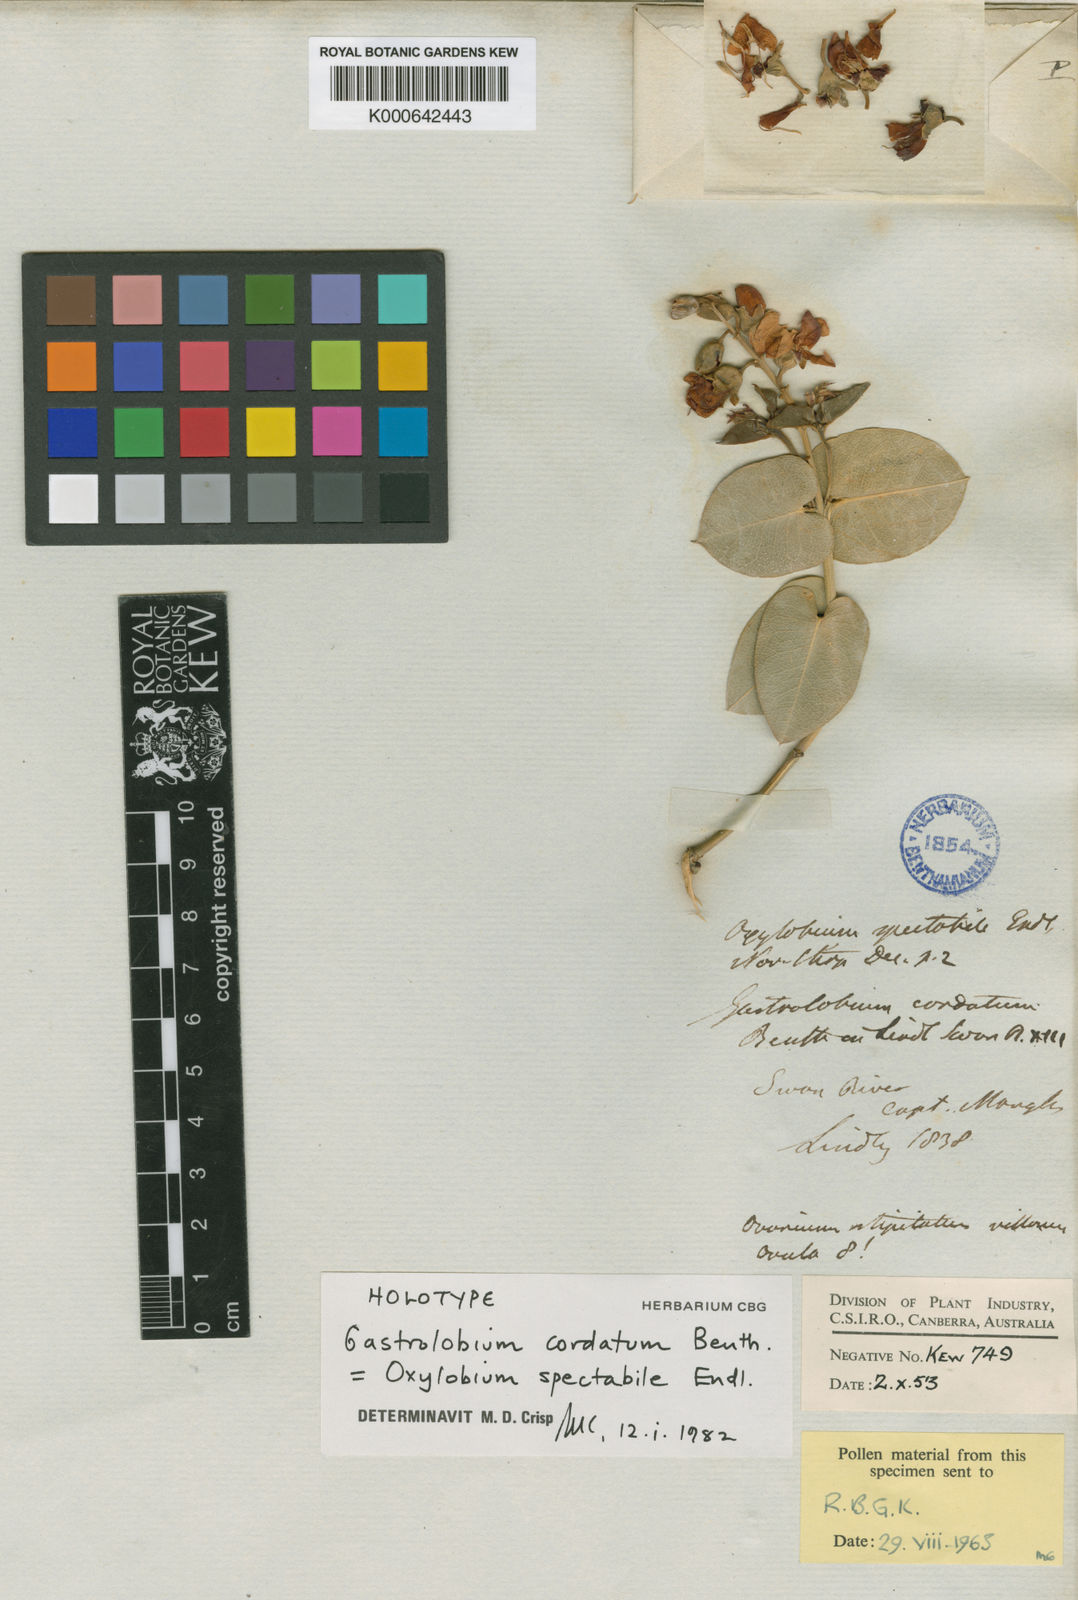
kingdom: Plantae
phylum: Tracheophyta
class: Magnoliopsida
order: Fabales
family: Fabaceae
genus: Gastrolobium
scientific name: Gastrolobium spectabile
